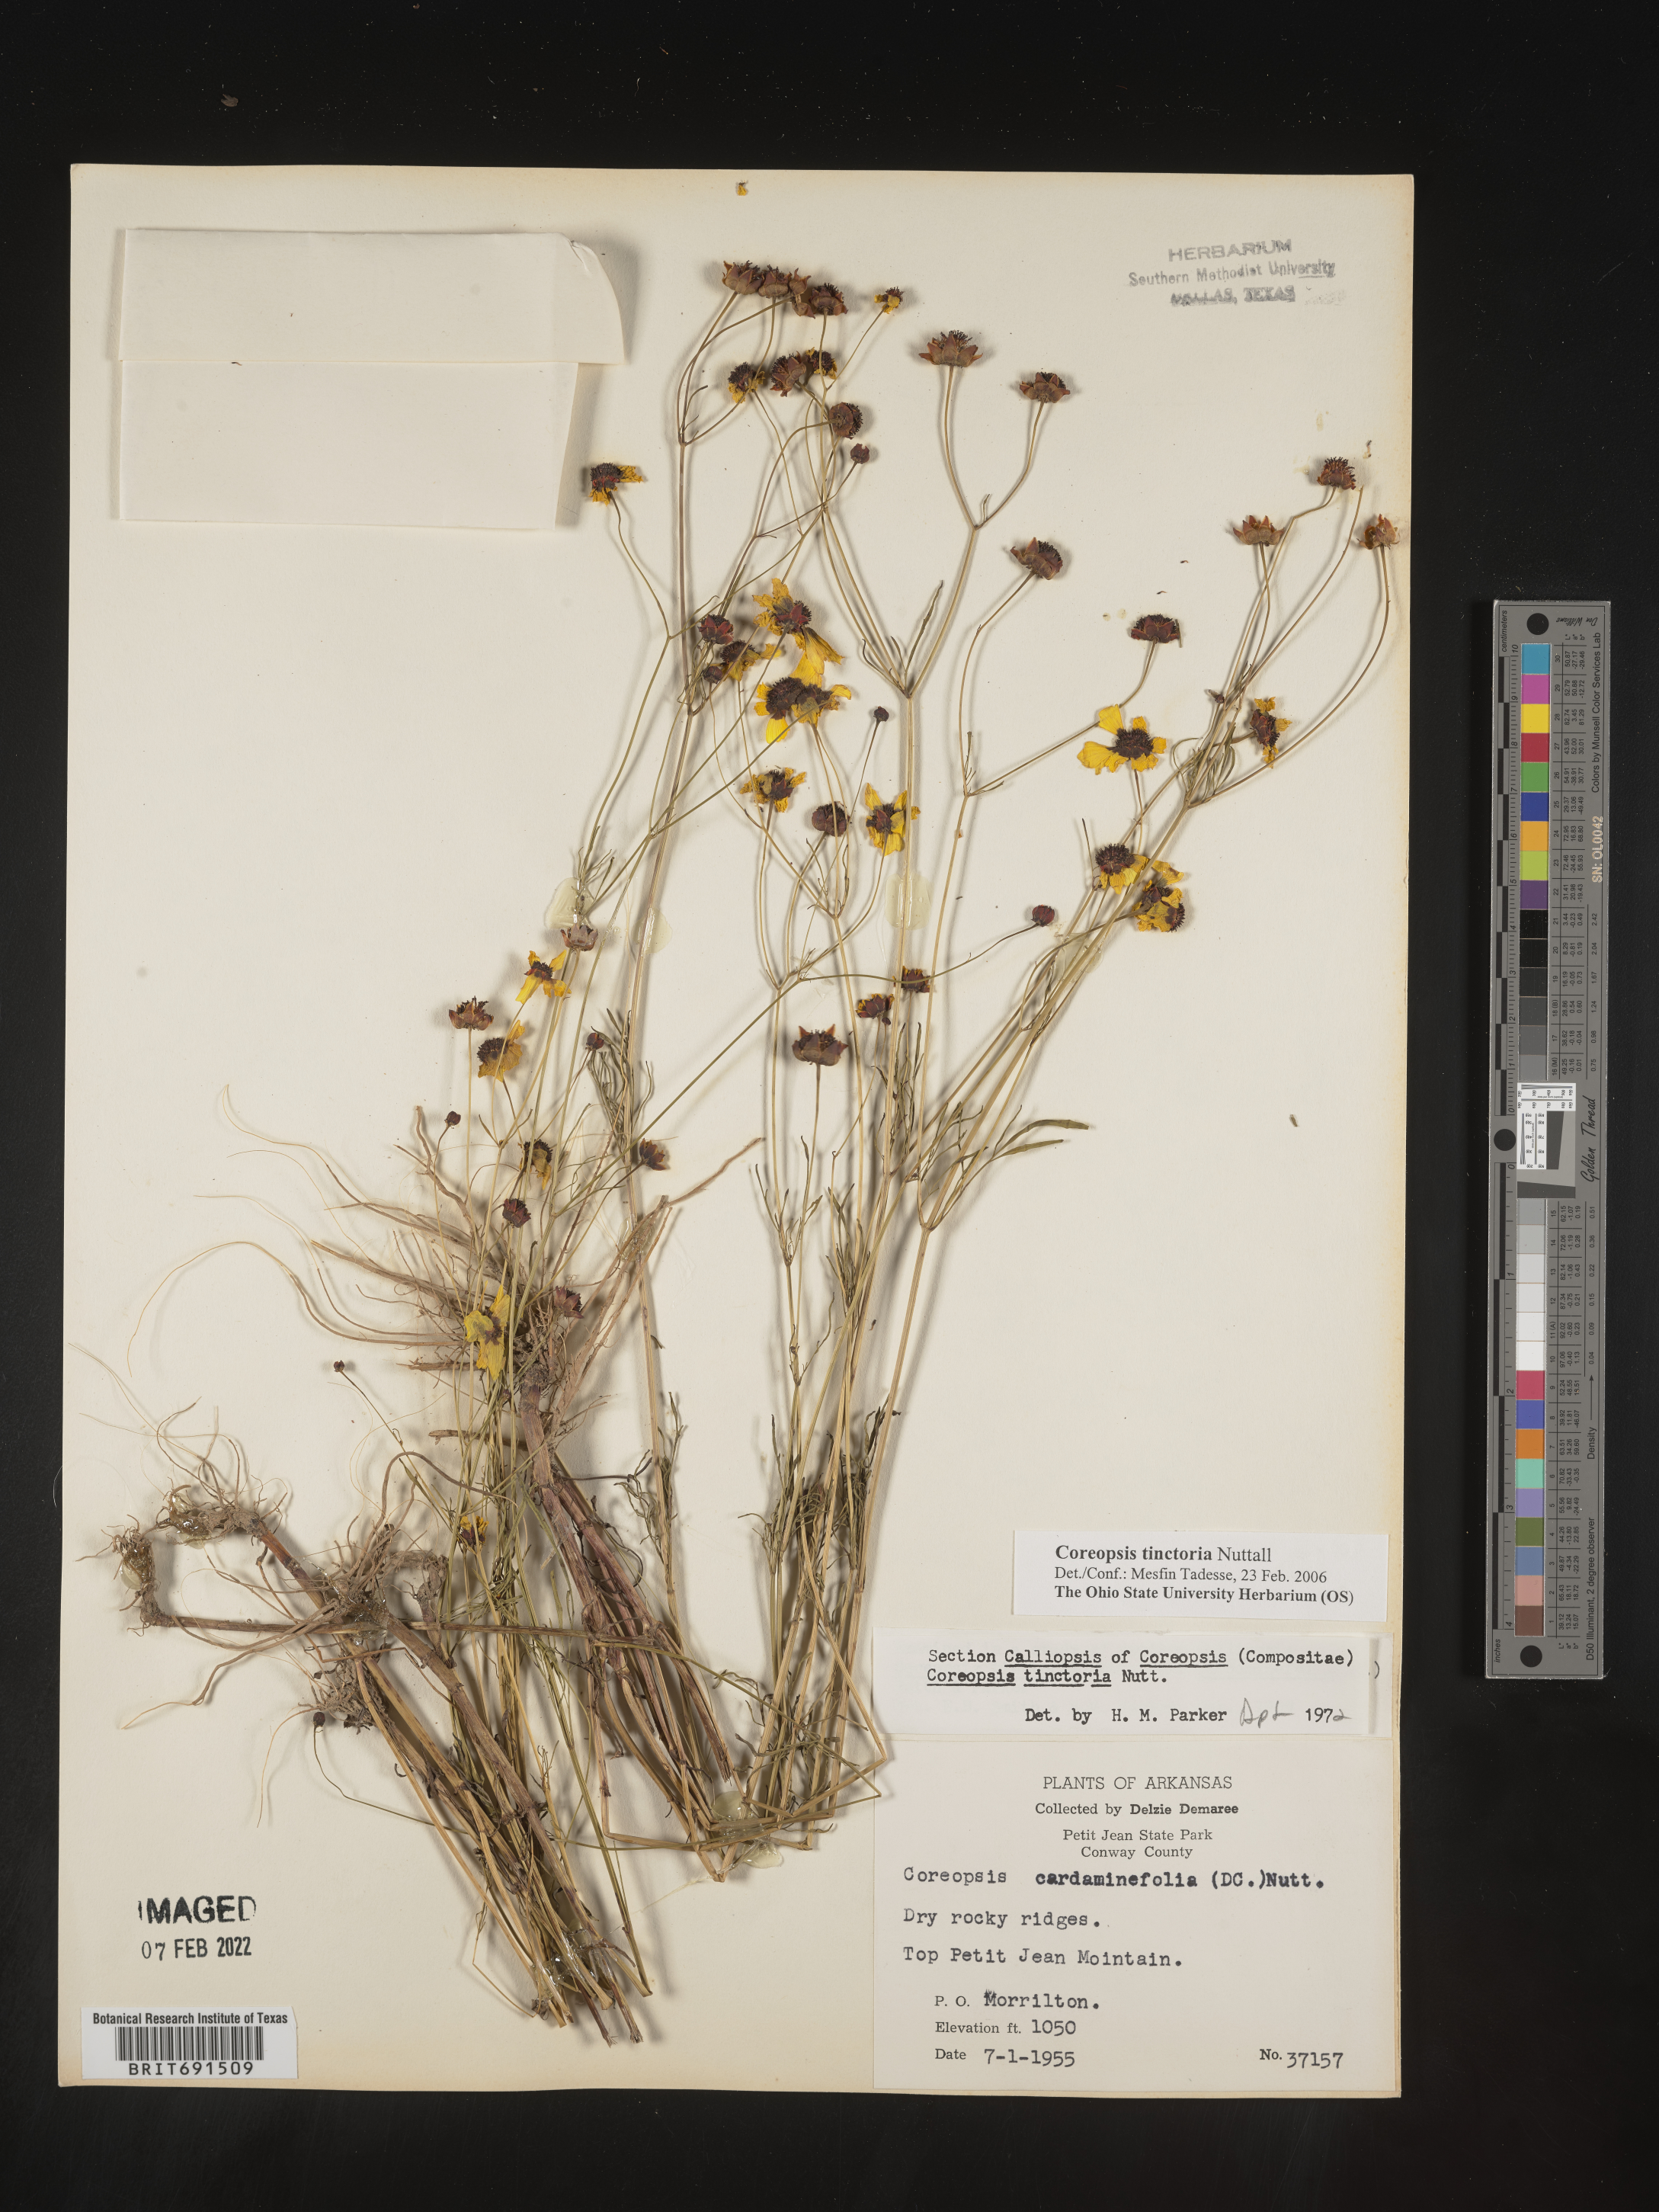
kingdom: Plantae
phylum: Tracheophyta
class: Magnoliopsida
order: Asterales
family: Asteraceae
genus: Coreopsis
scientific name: Coreopsis tinctoria
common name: Garden tickseed
